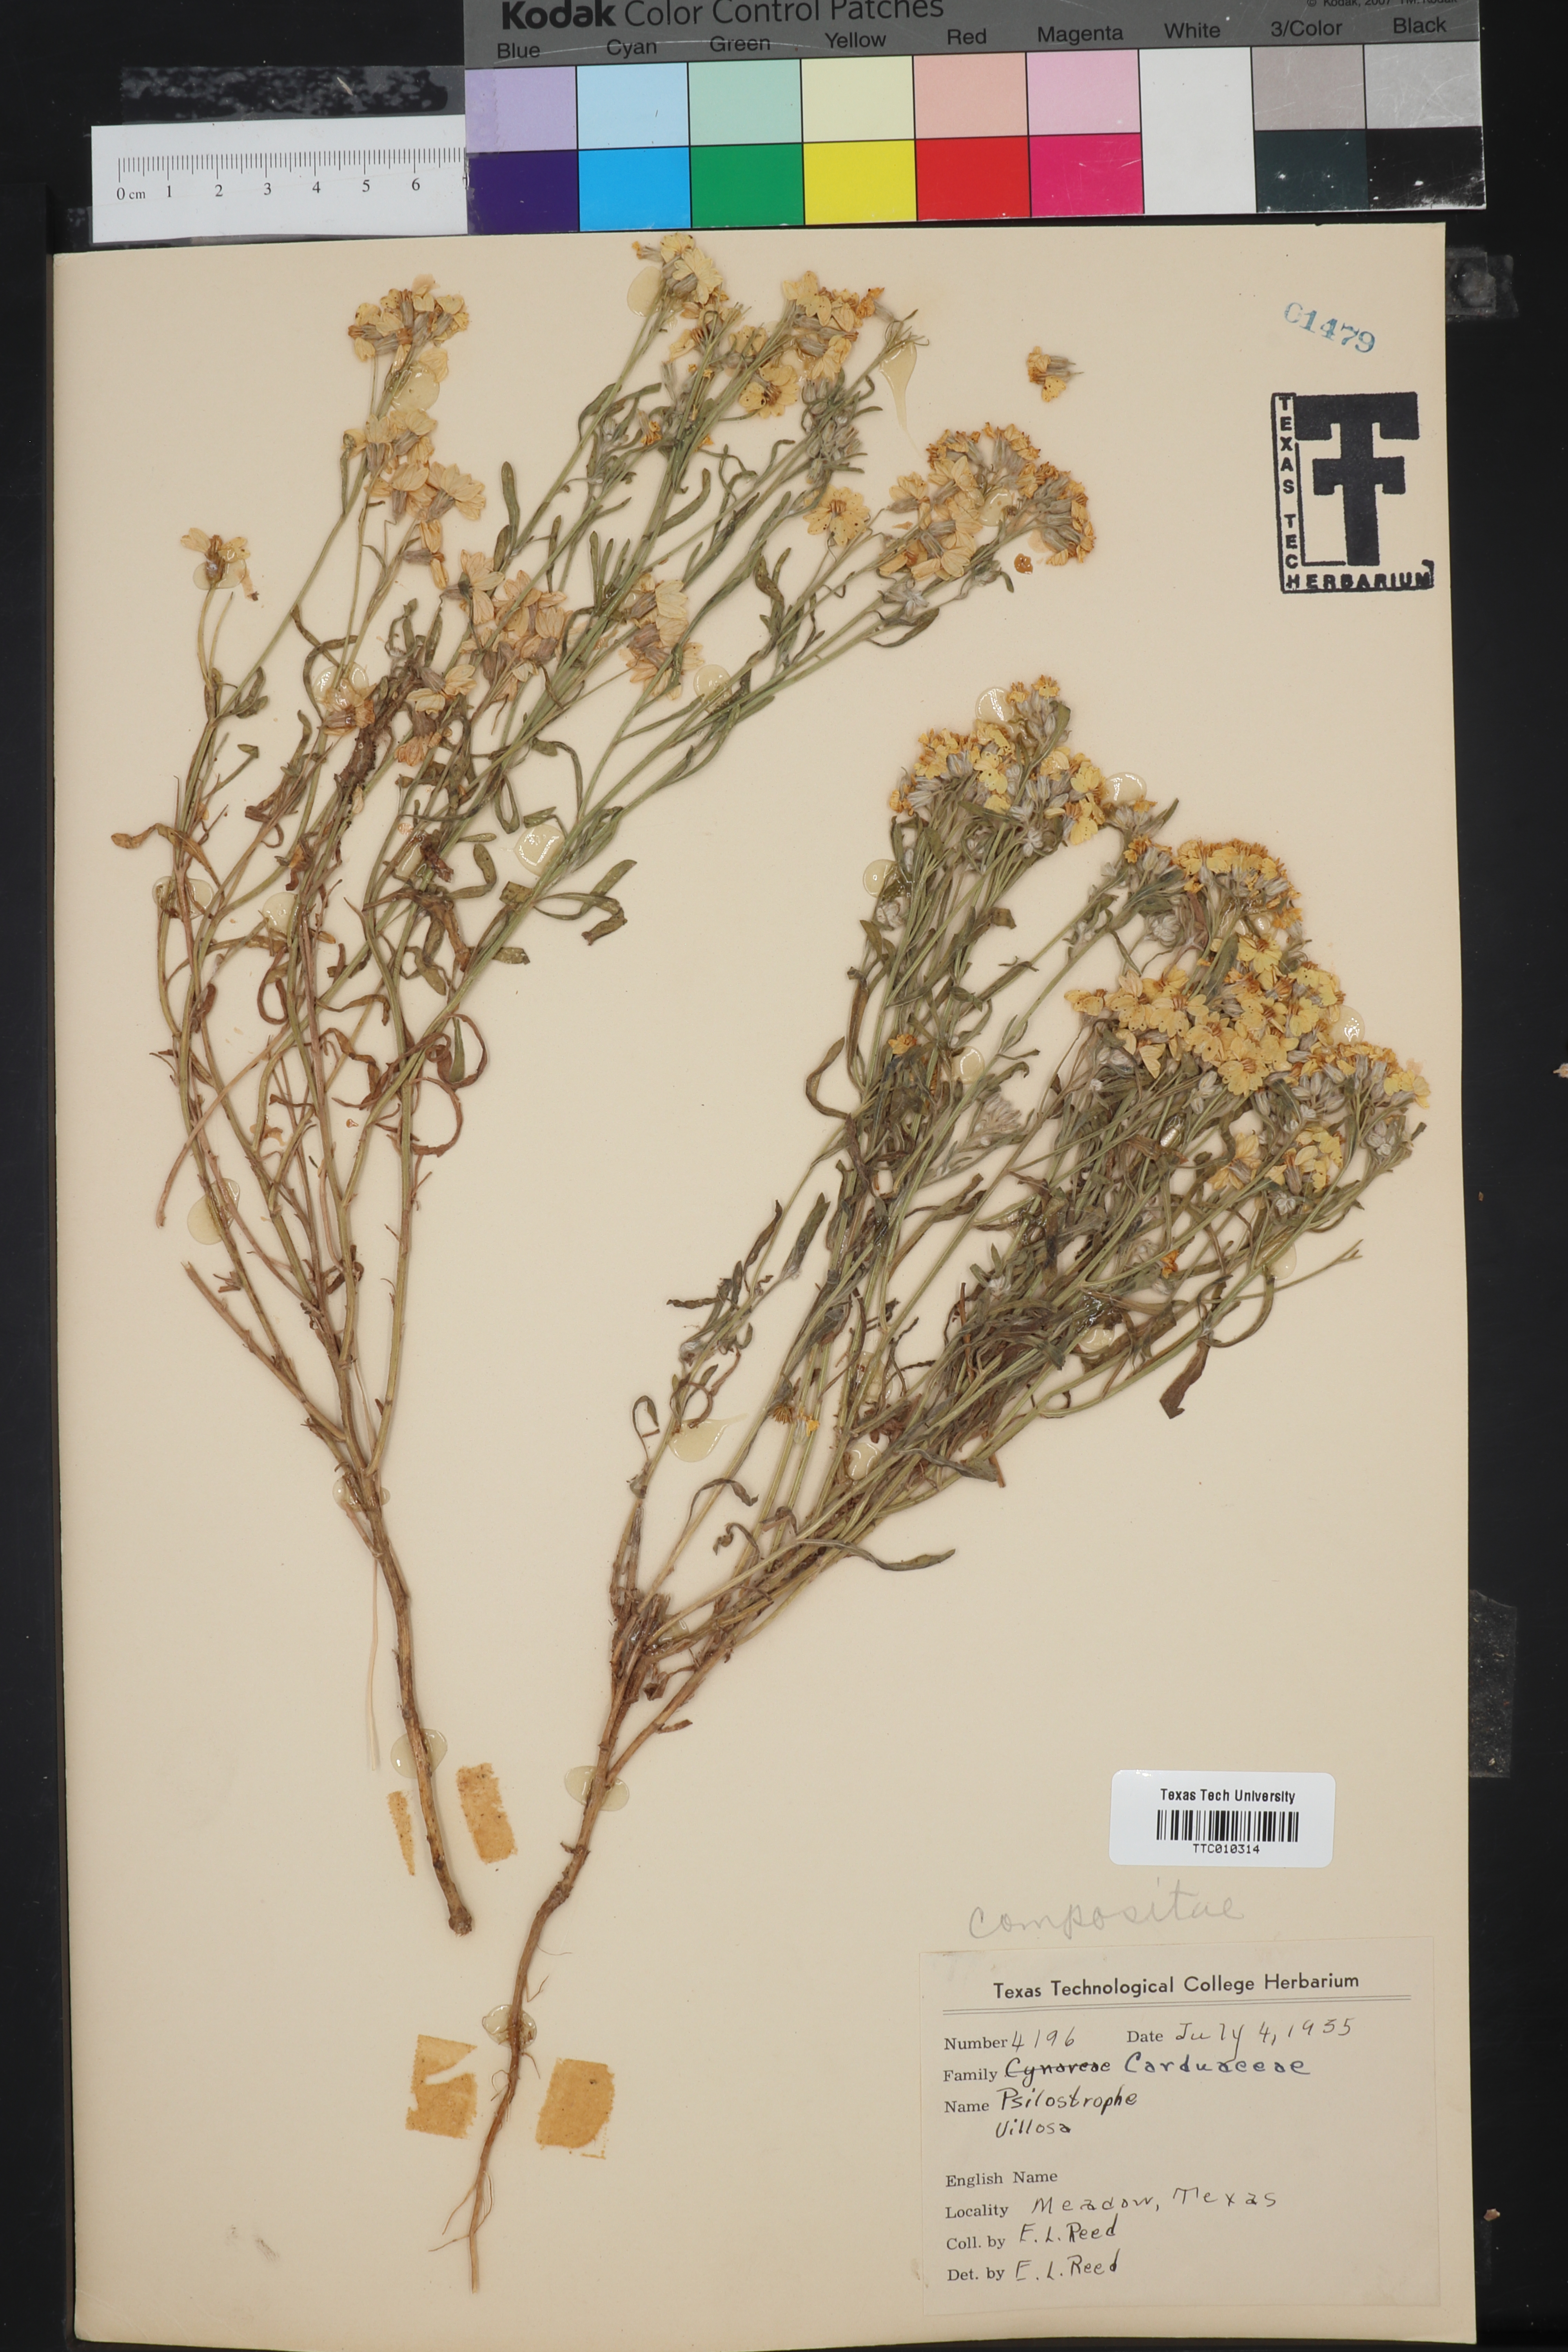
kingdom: Plantae
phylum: Tracheophyta
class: Magnoliopsida
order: Asterales
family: Asteraceae
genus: Psilostrophe
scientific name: Psilostrophe villosa
